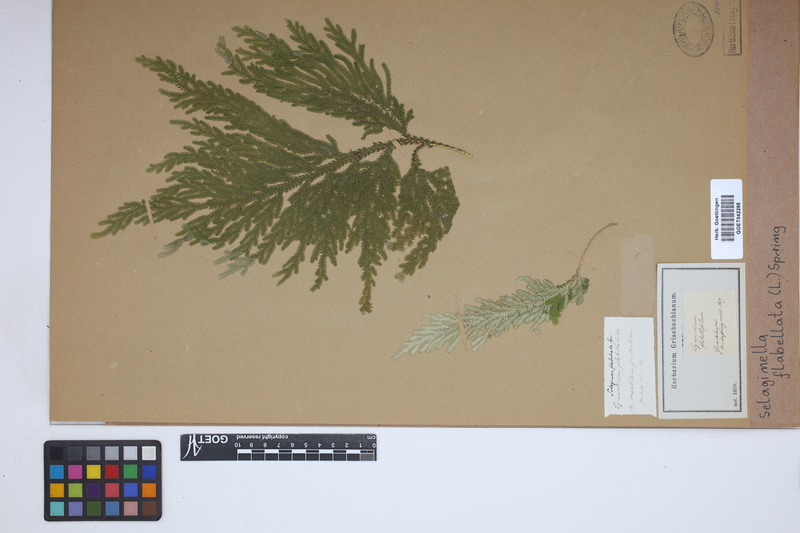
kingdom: Plantae
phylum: Tracheophyta
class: Lycopodiopsida
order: Selaginellales
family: Selaginellaceae
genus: Selaginella
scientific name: Selaginella flabellata
